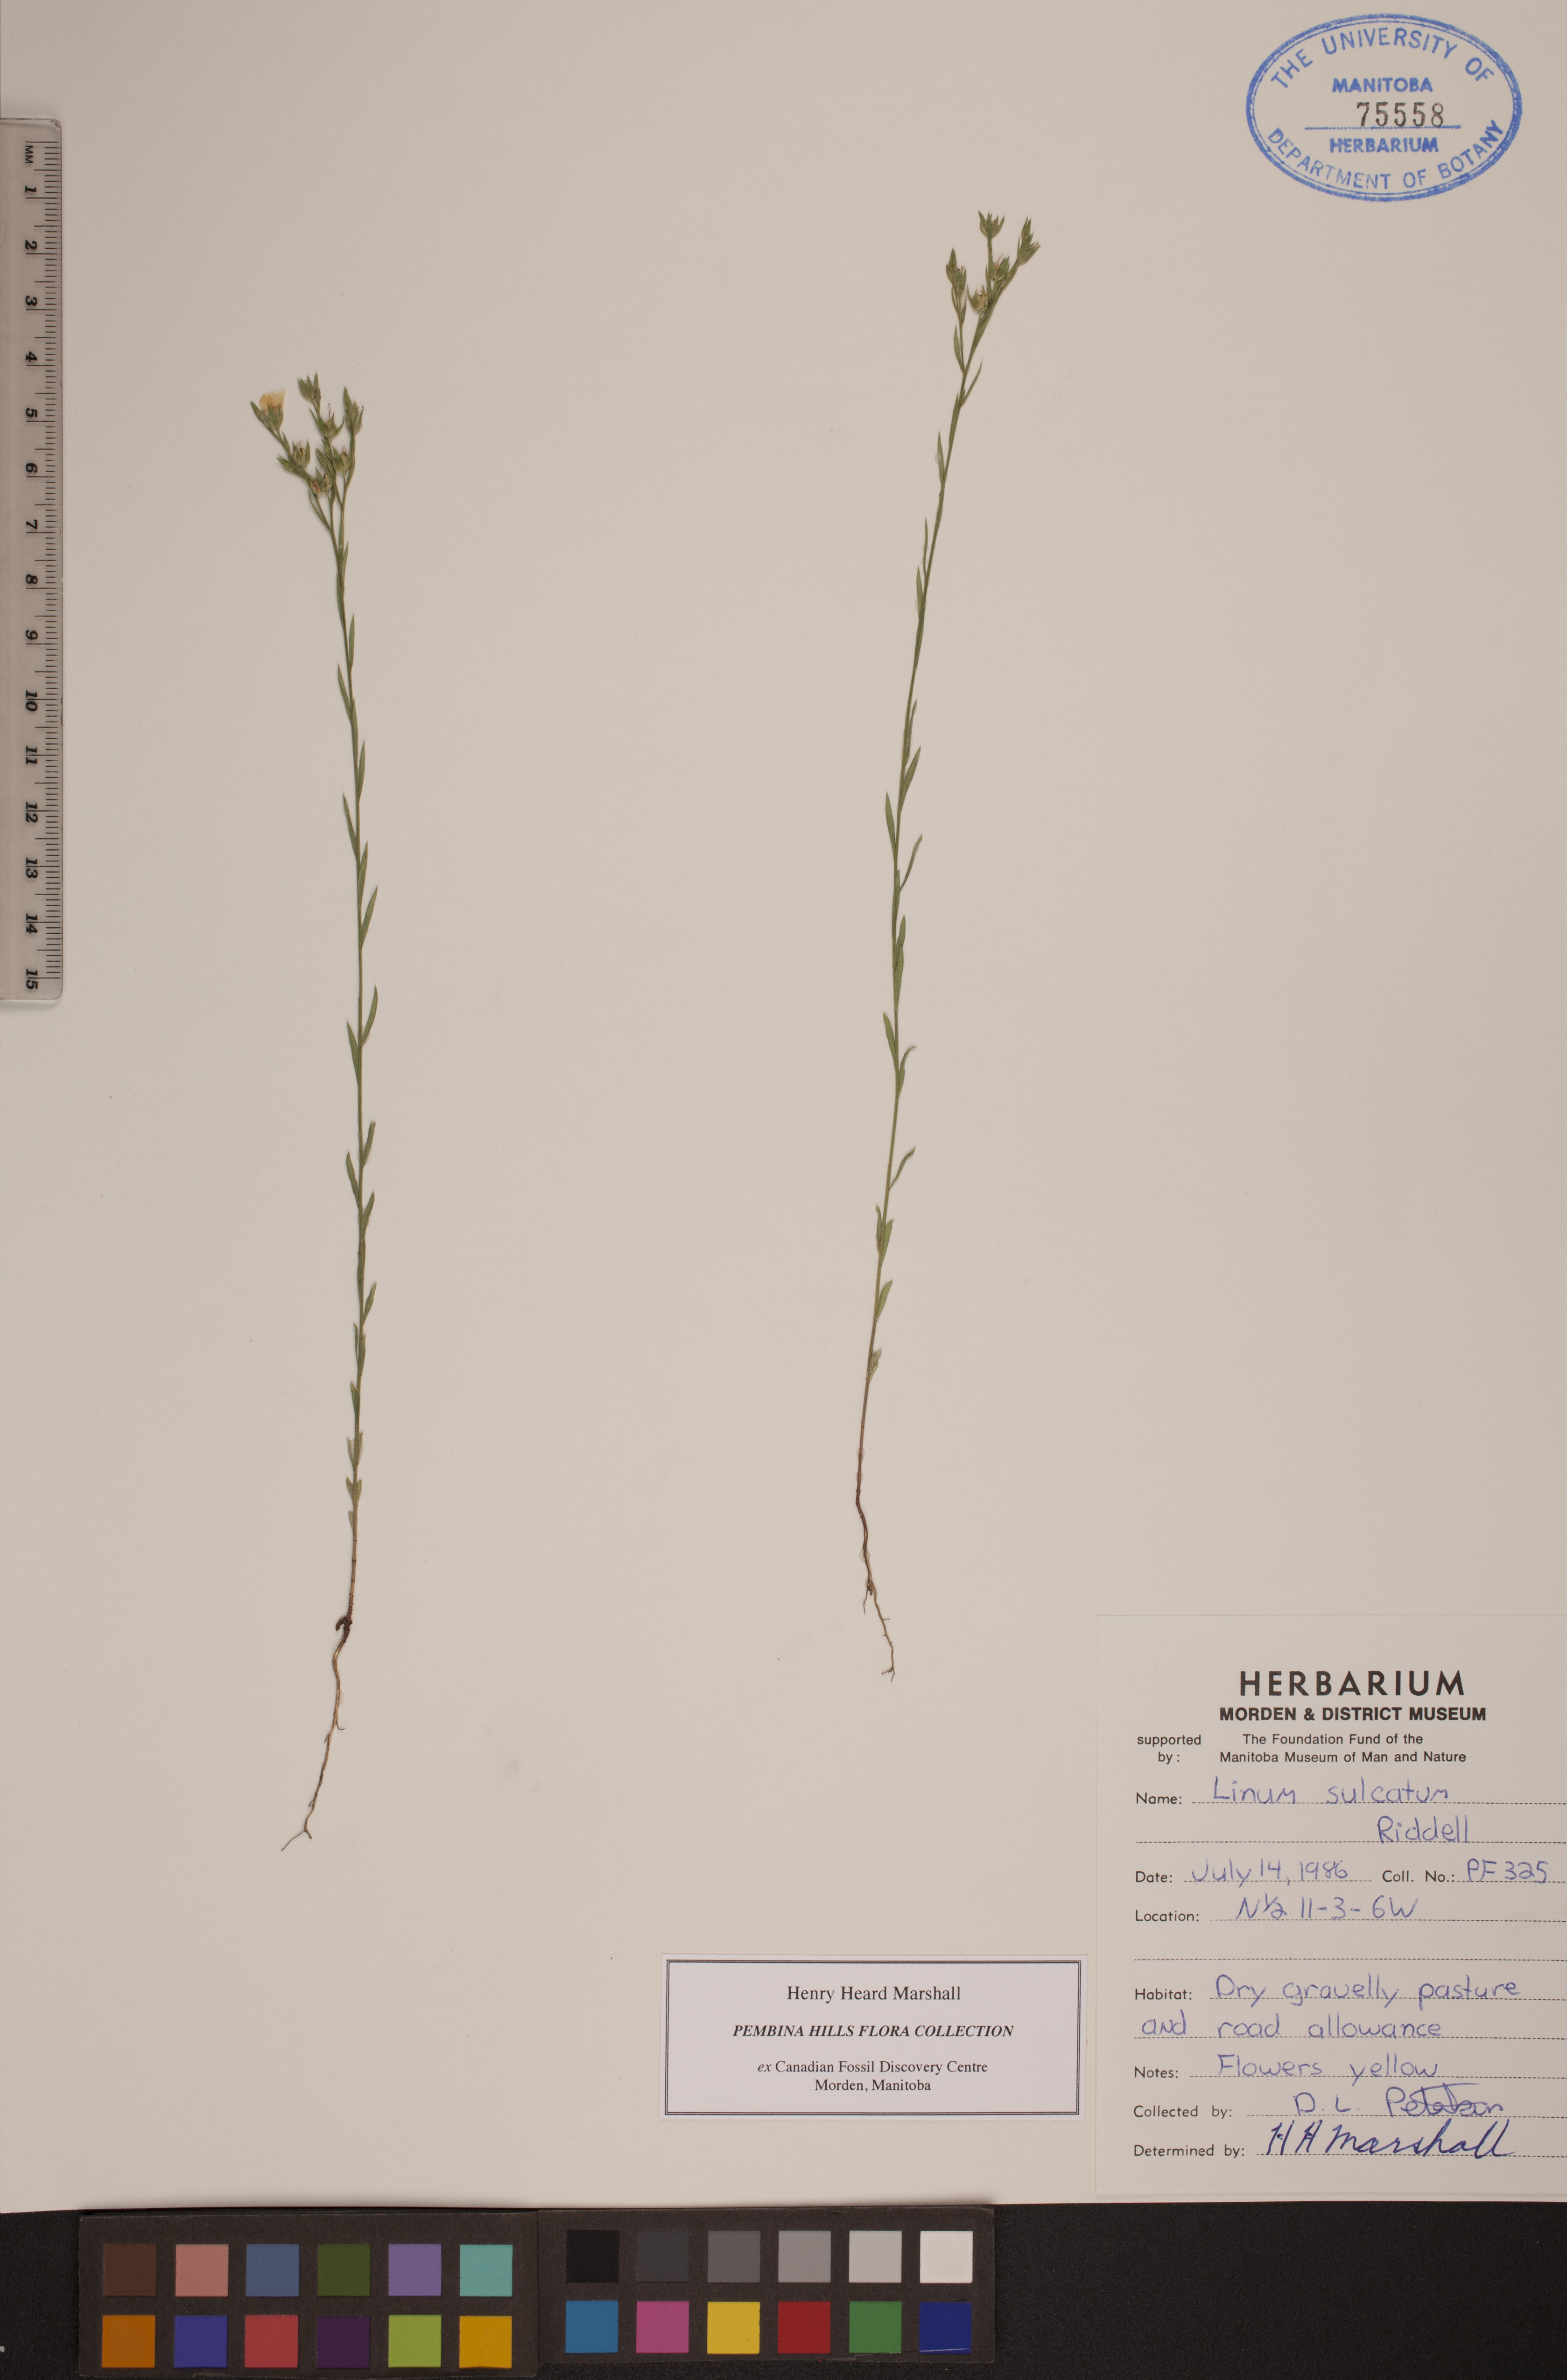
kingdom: Plantae
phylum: Tracheophyta
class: Magnoliopsida
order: Malpighiales
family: Linaceae
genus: Linum
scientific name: Linum sulcatum
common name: Grooved flax
